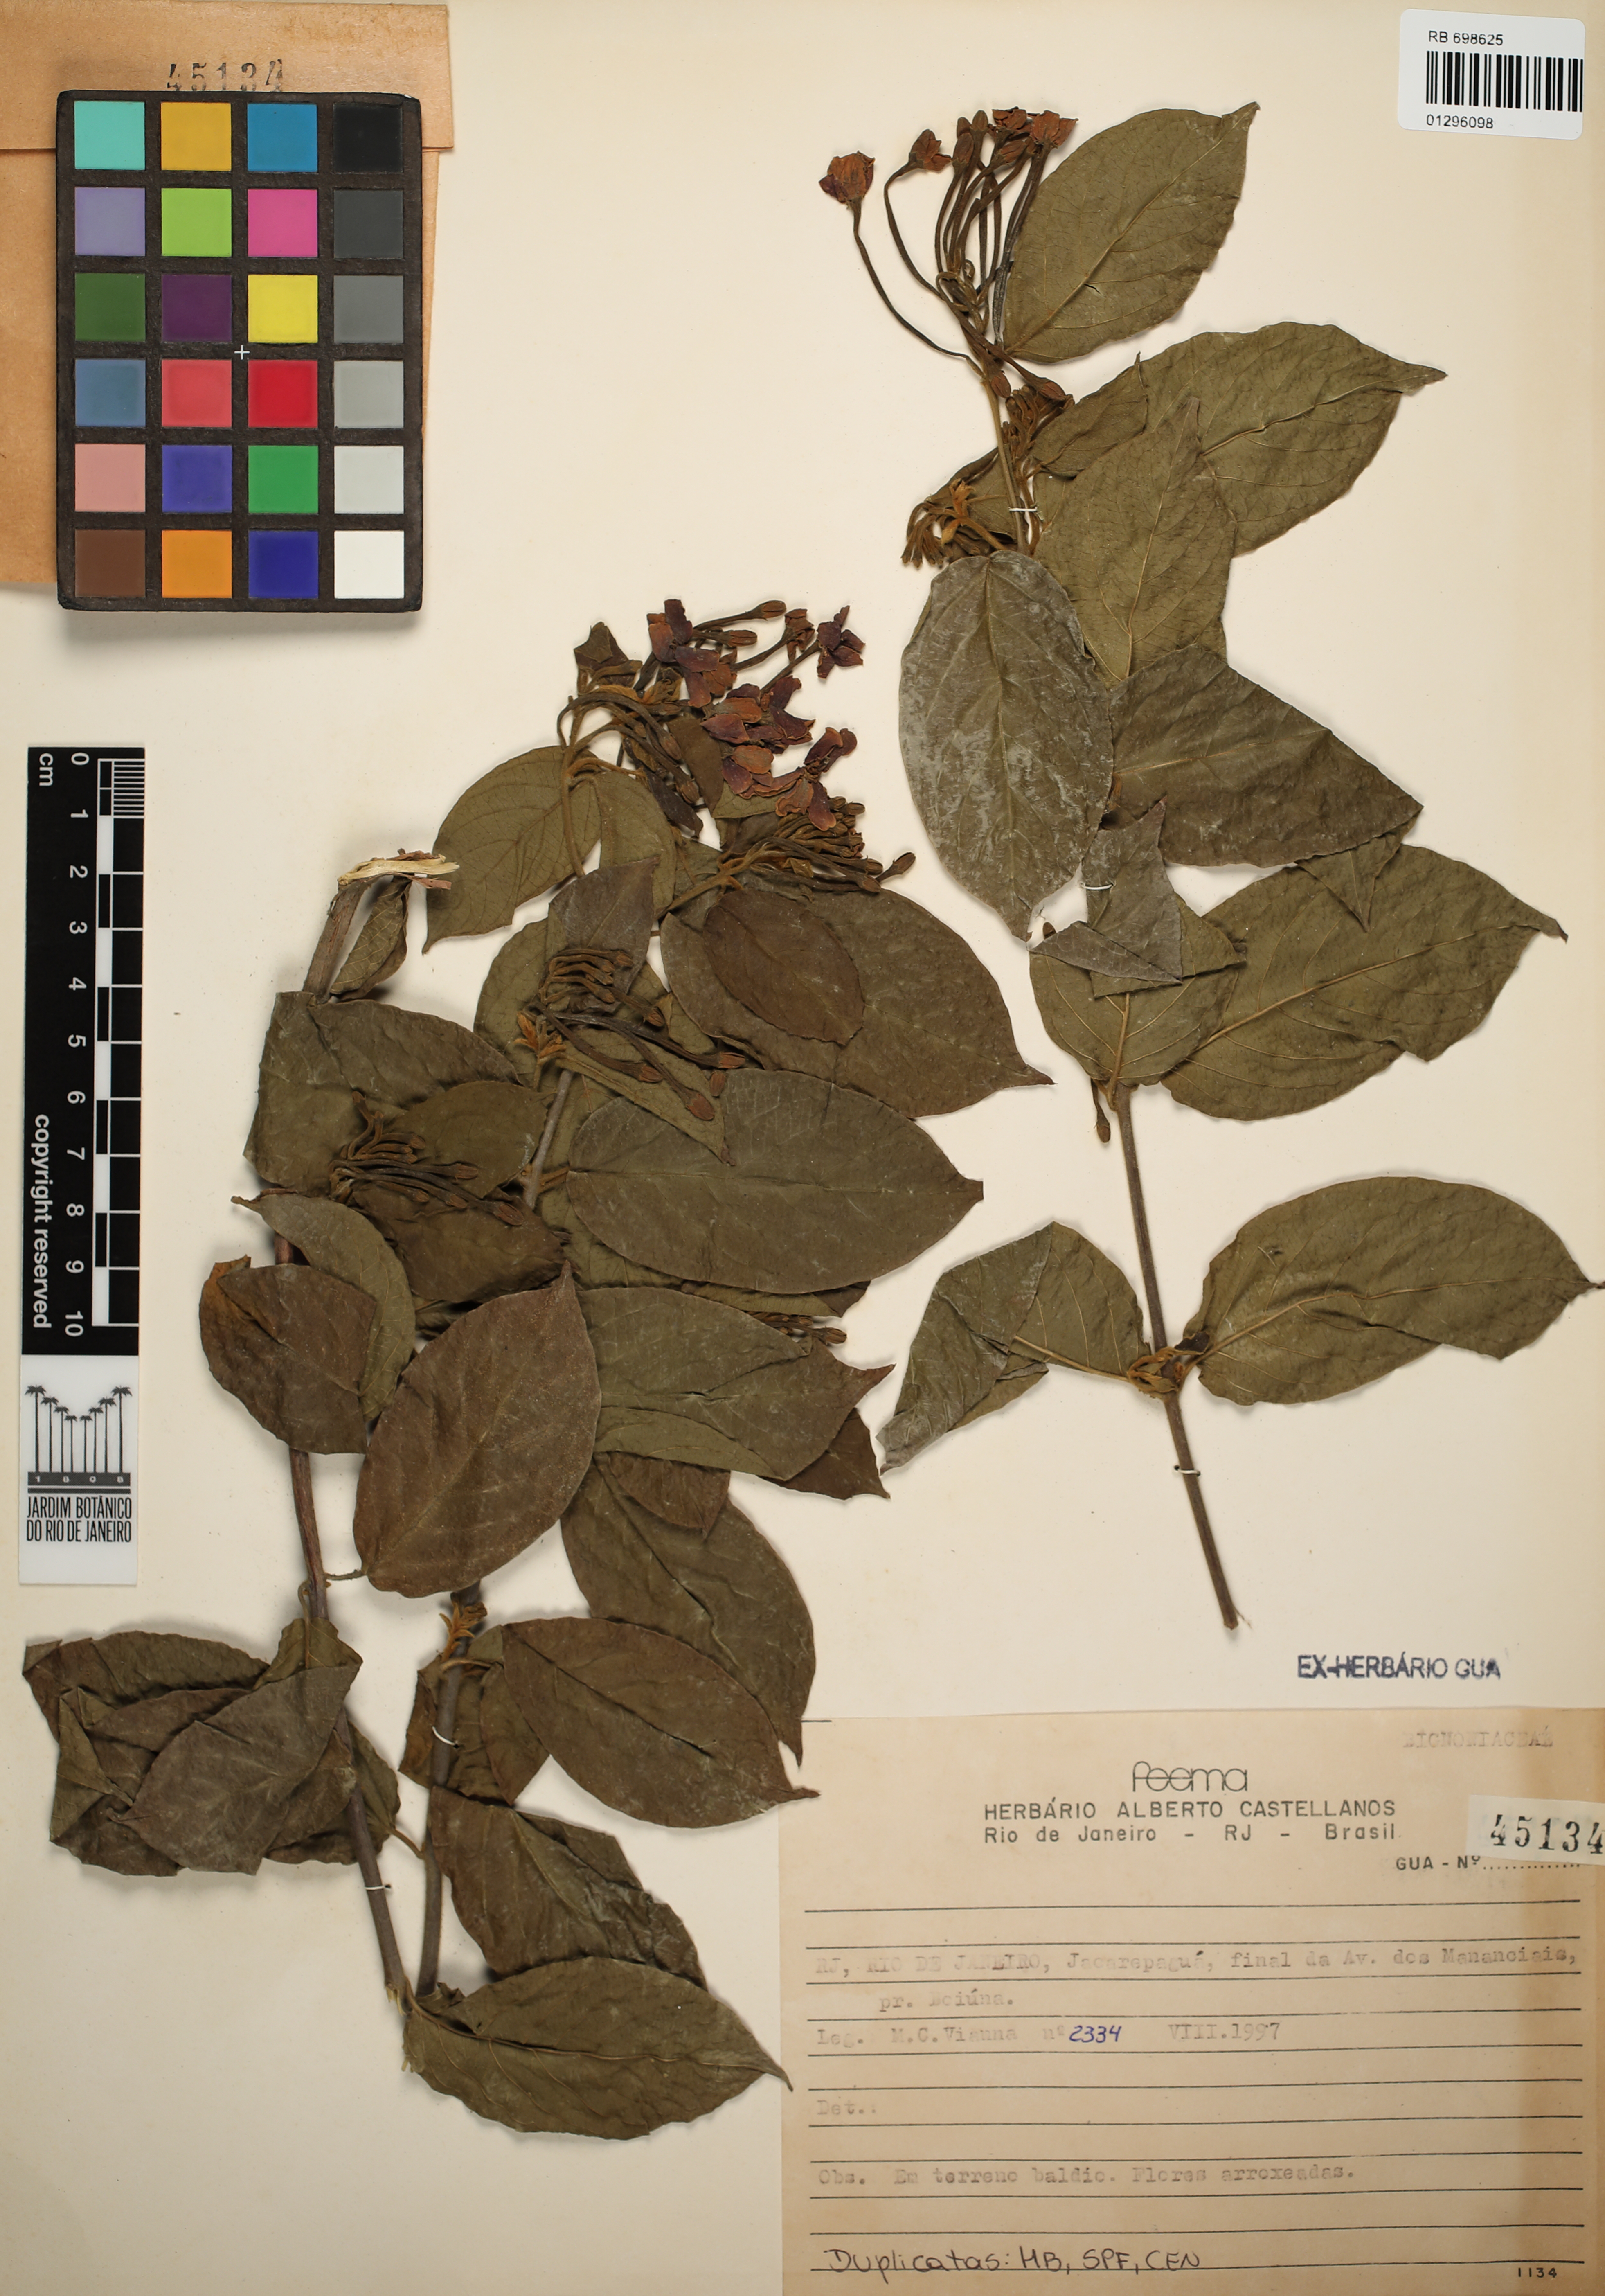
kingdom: Plantae
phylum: Tracheophyta
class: Magnoliopsida
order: Lamiales
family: Bignoniaceae
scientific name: Bignoniaceae
